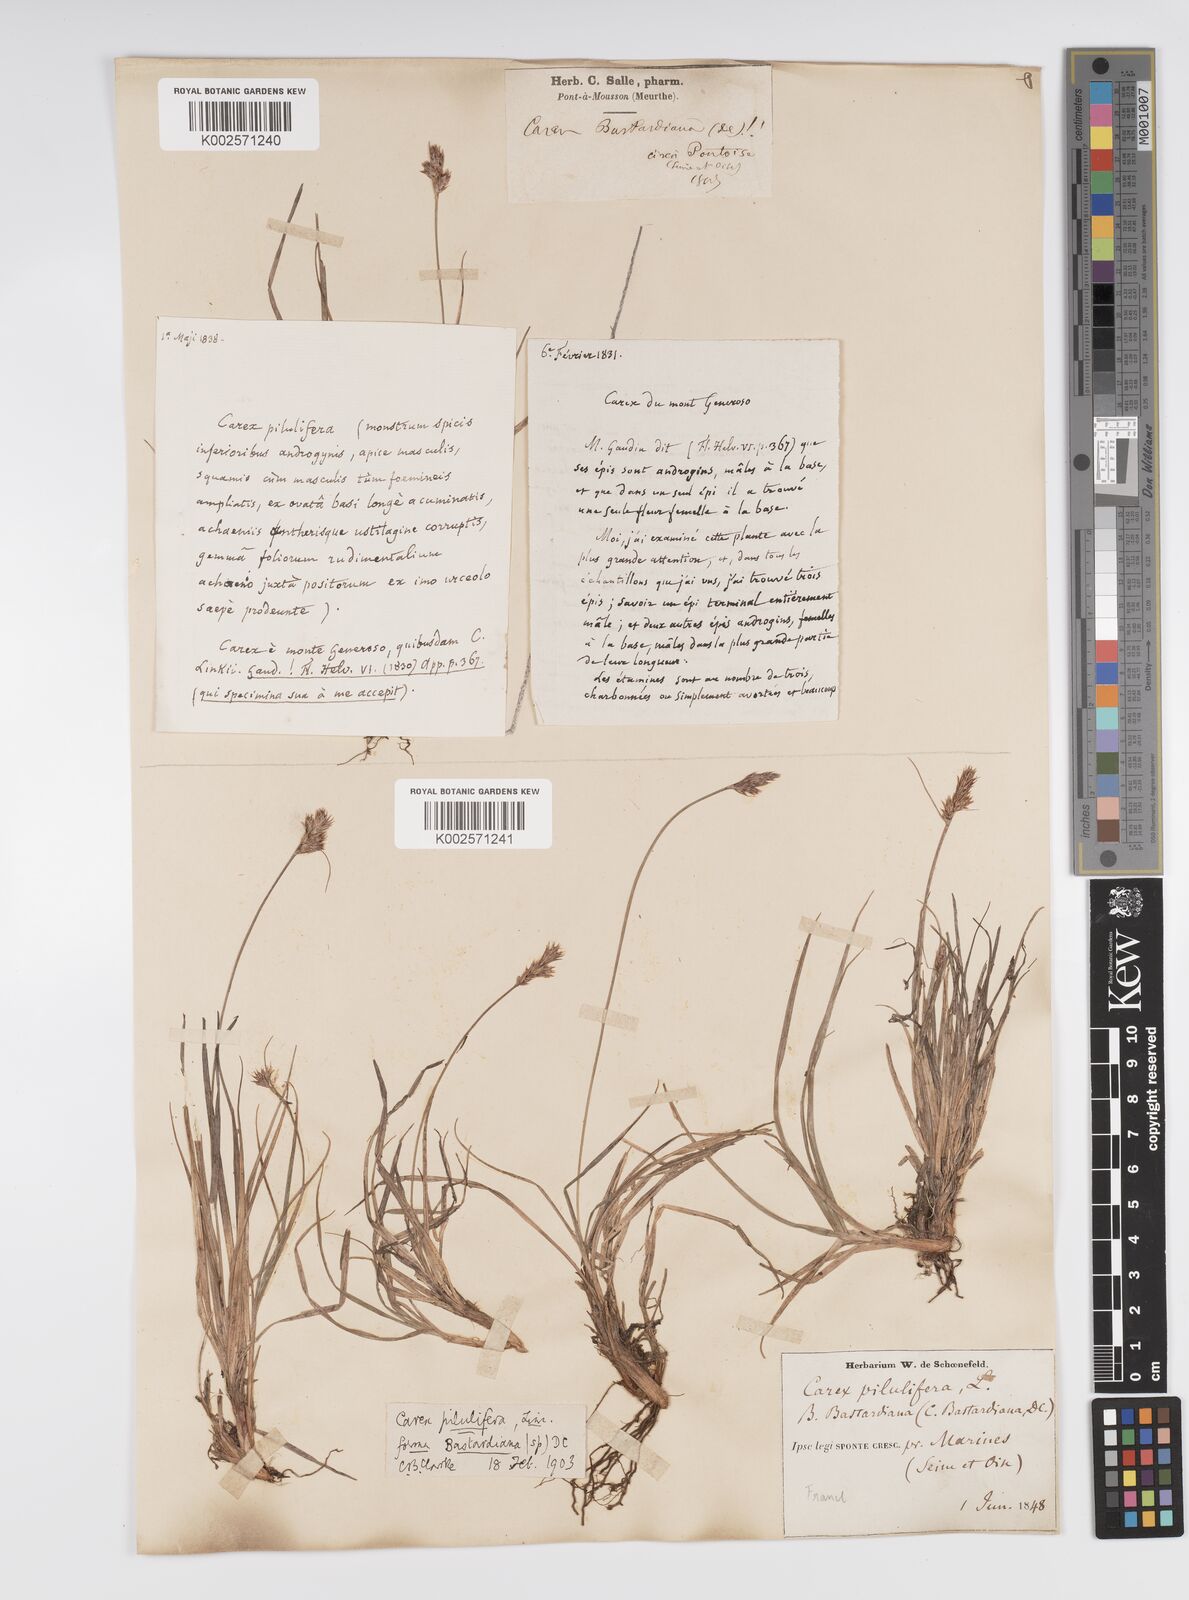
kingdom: Plantae
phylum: Tracheophyta
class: Liliopsida
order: Poales
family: Cyperaceae
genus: Carex
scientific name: Carex pilulifera
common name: Pill sedge
